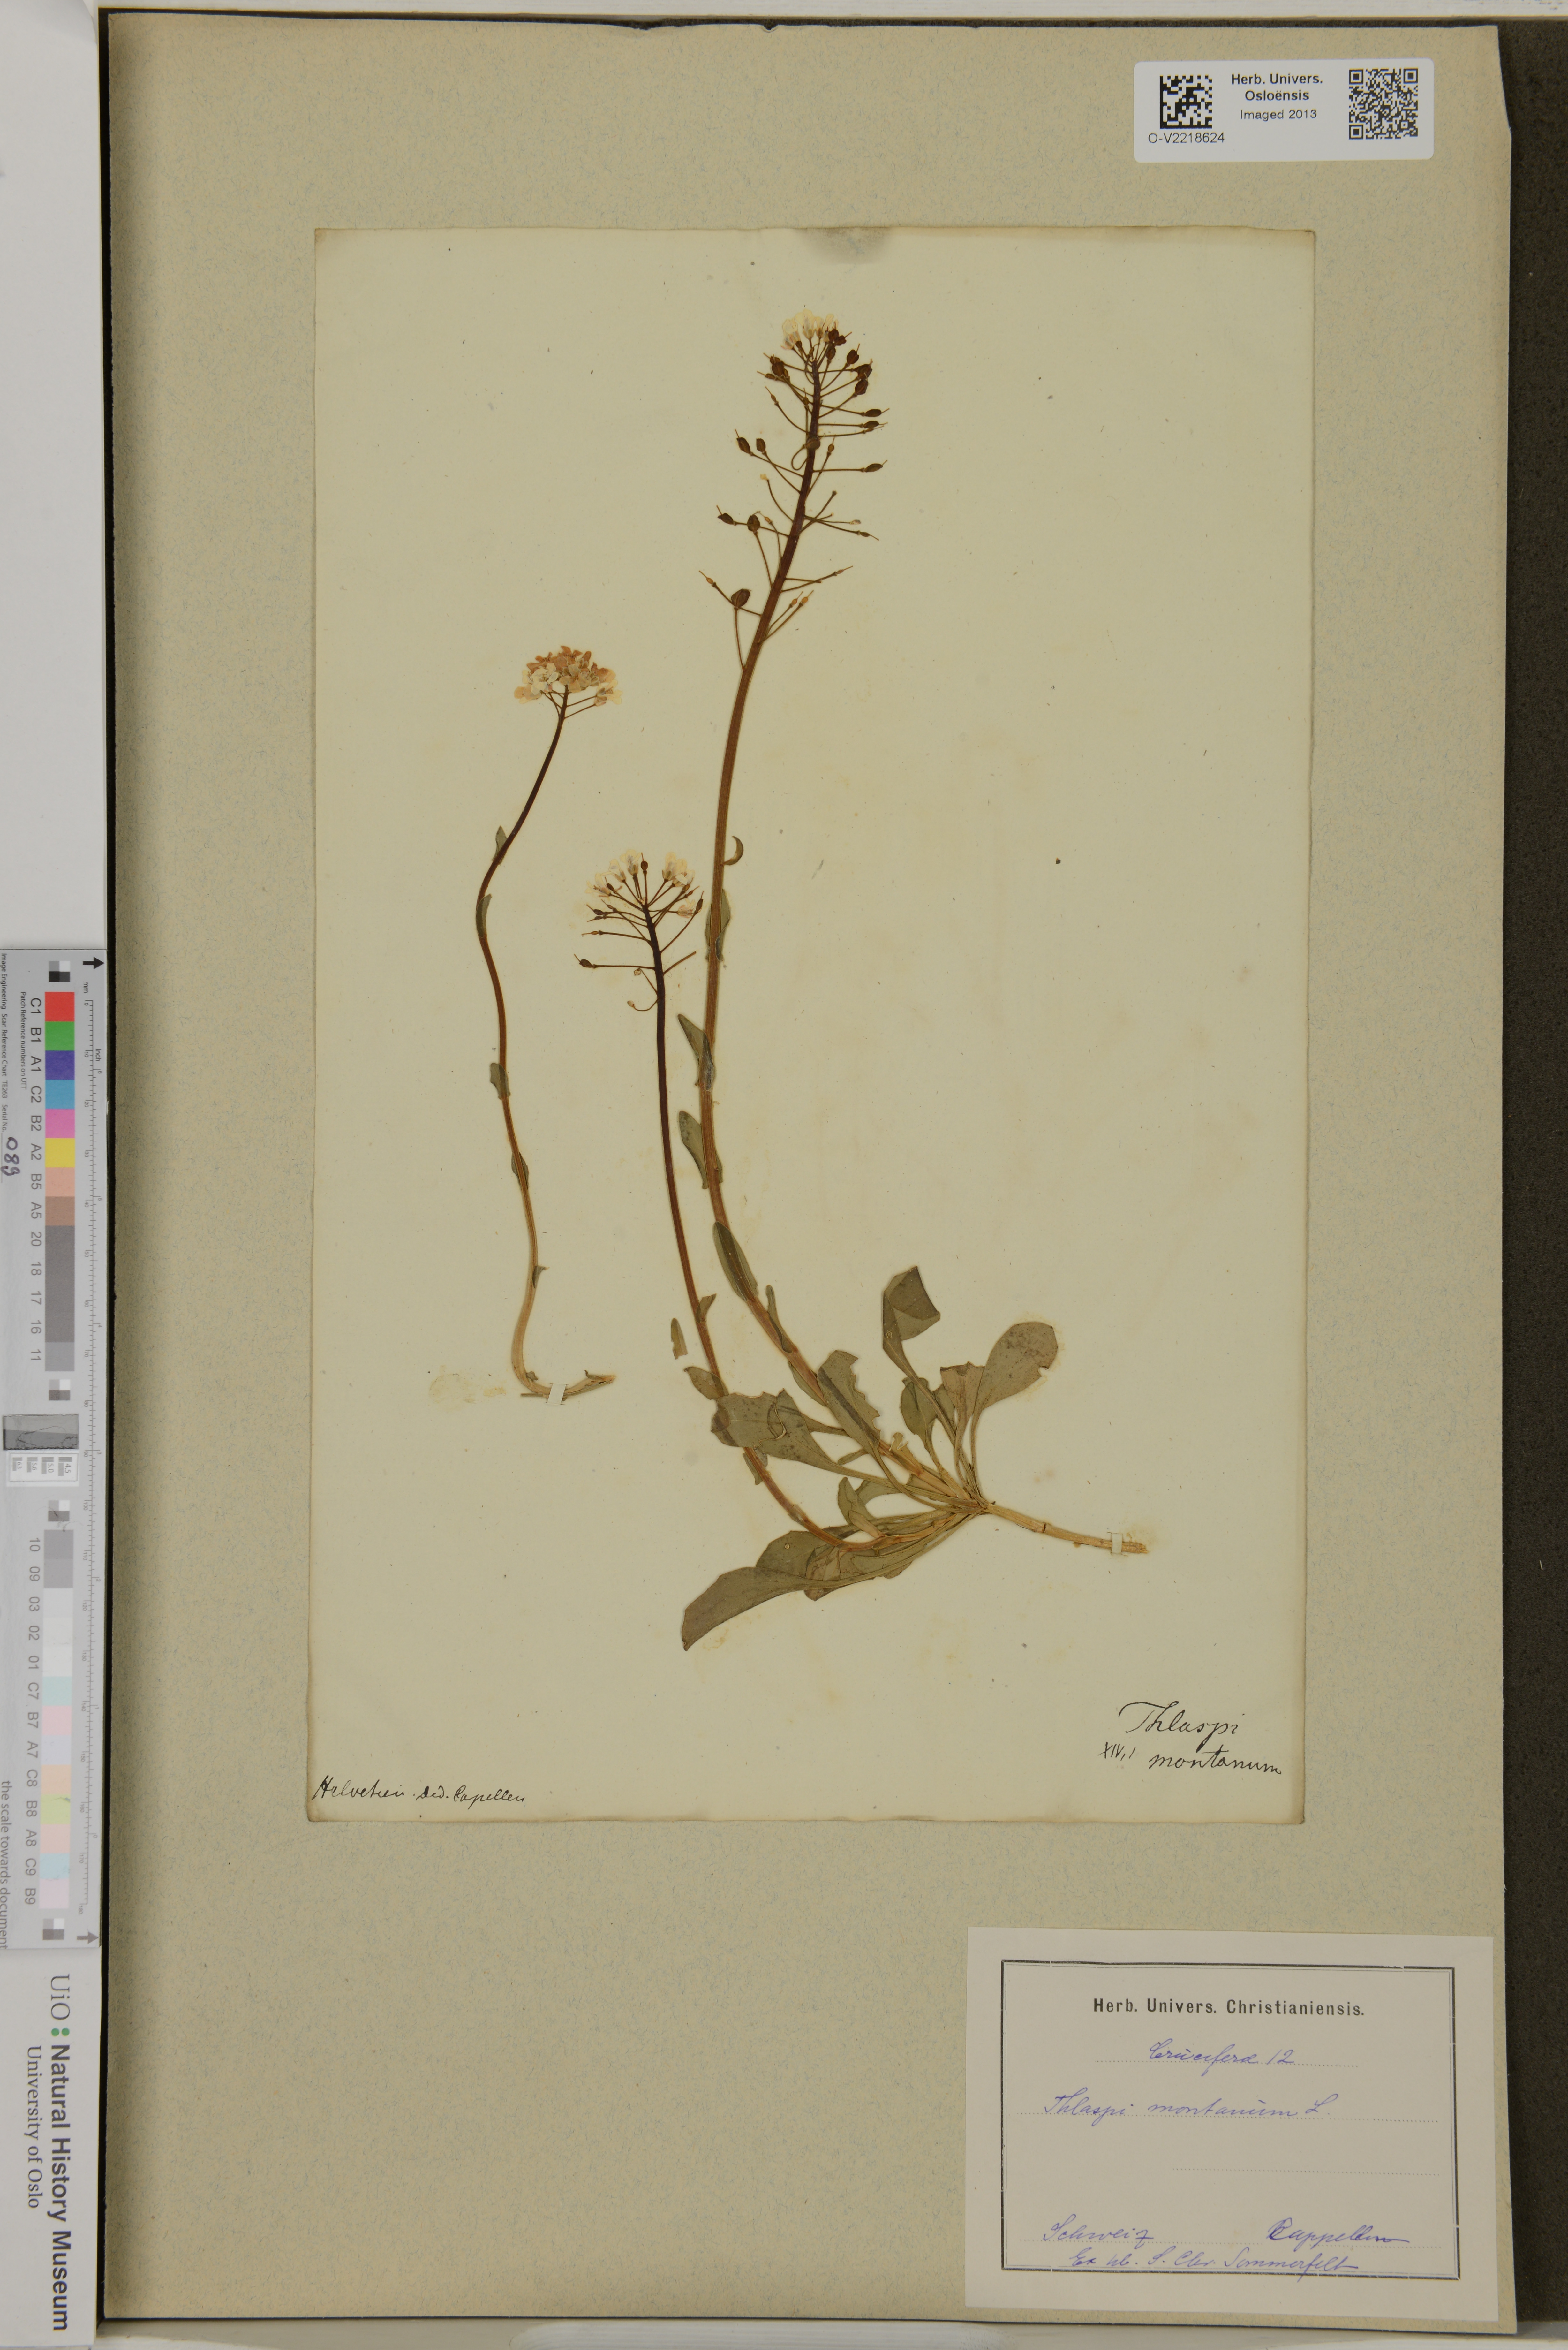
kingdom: Plantae
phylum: Tracheophyta
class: Magnoliopsida
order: Brassicales
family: Brassicaceae
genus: Thlaspi
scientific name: Thlaspi montanum
